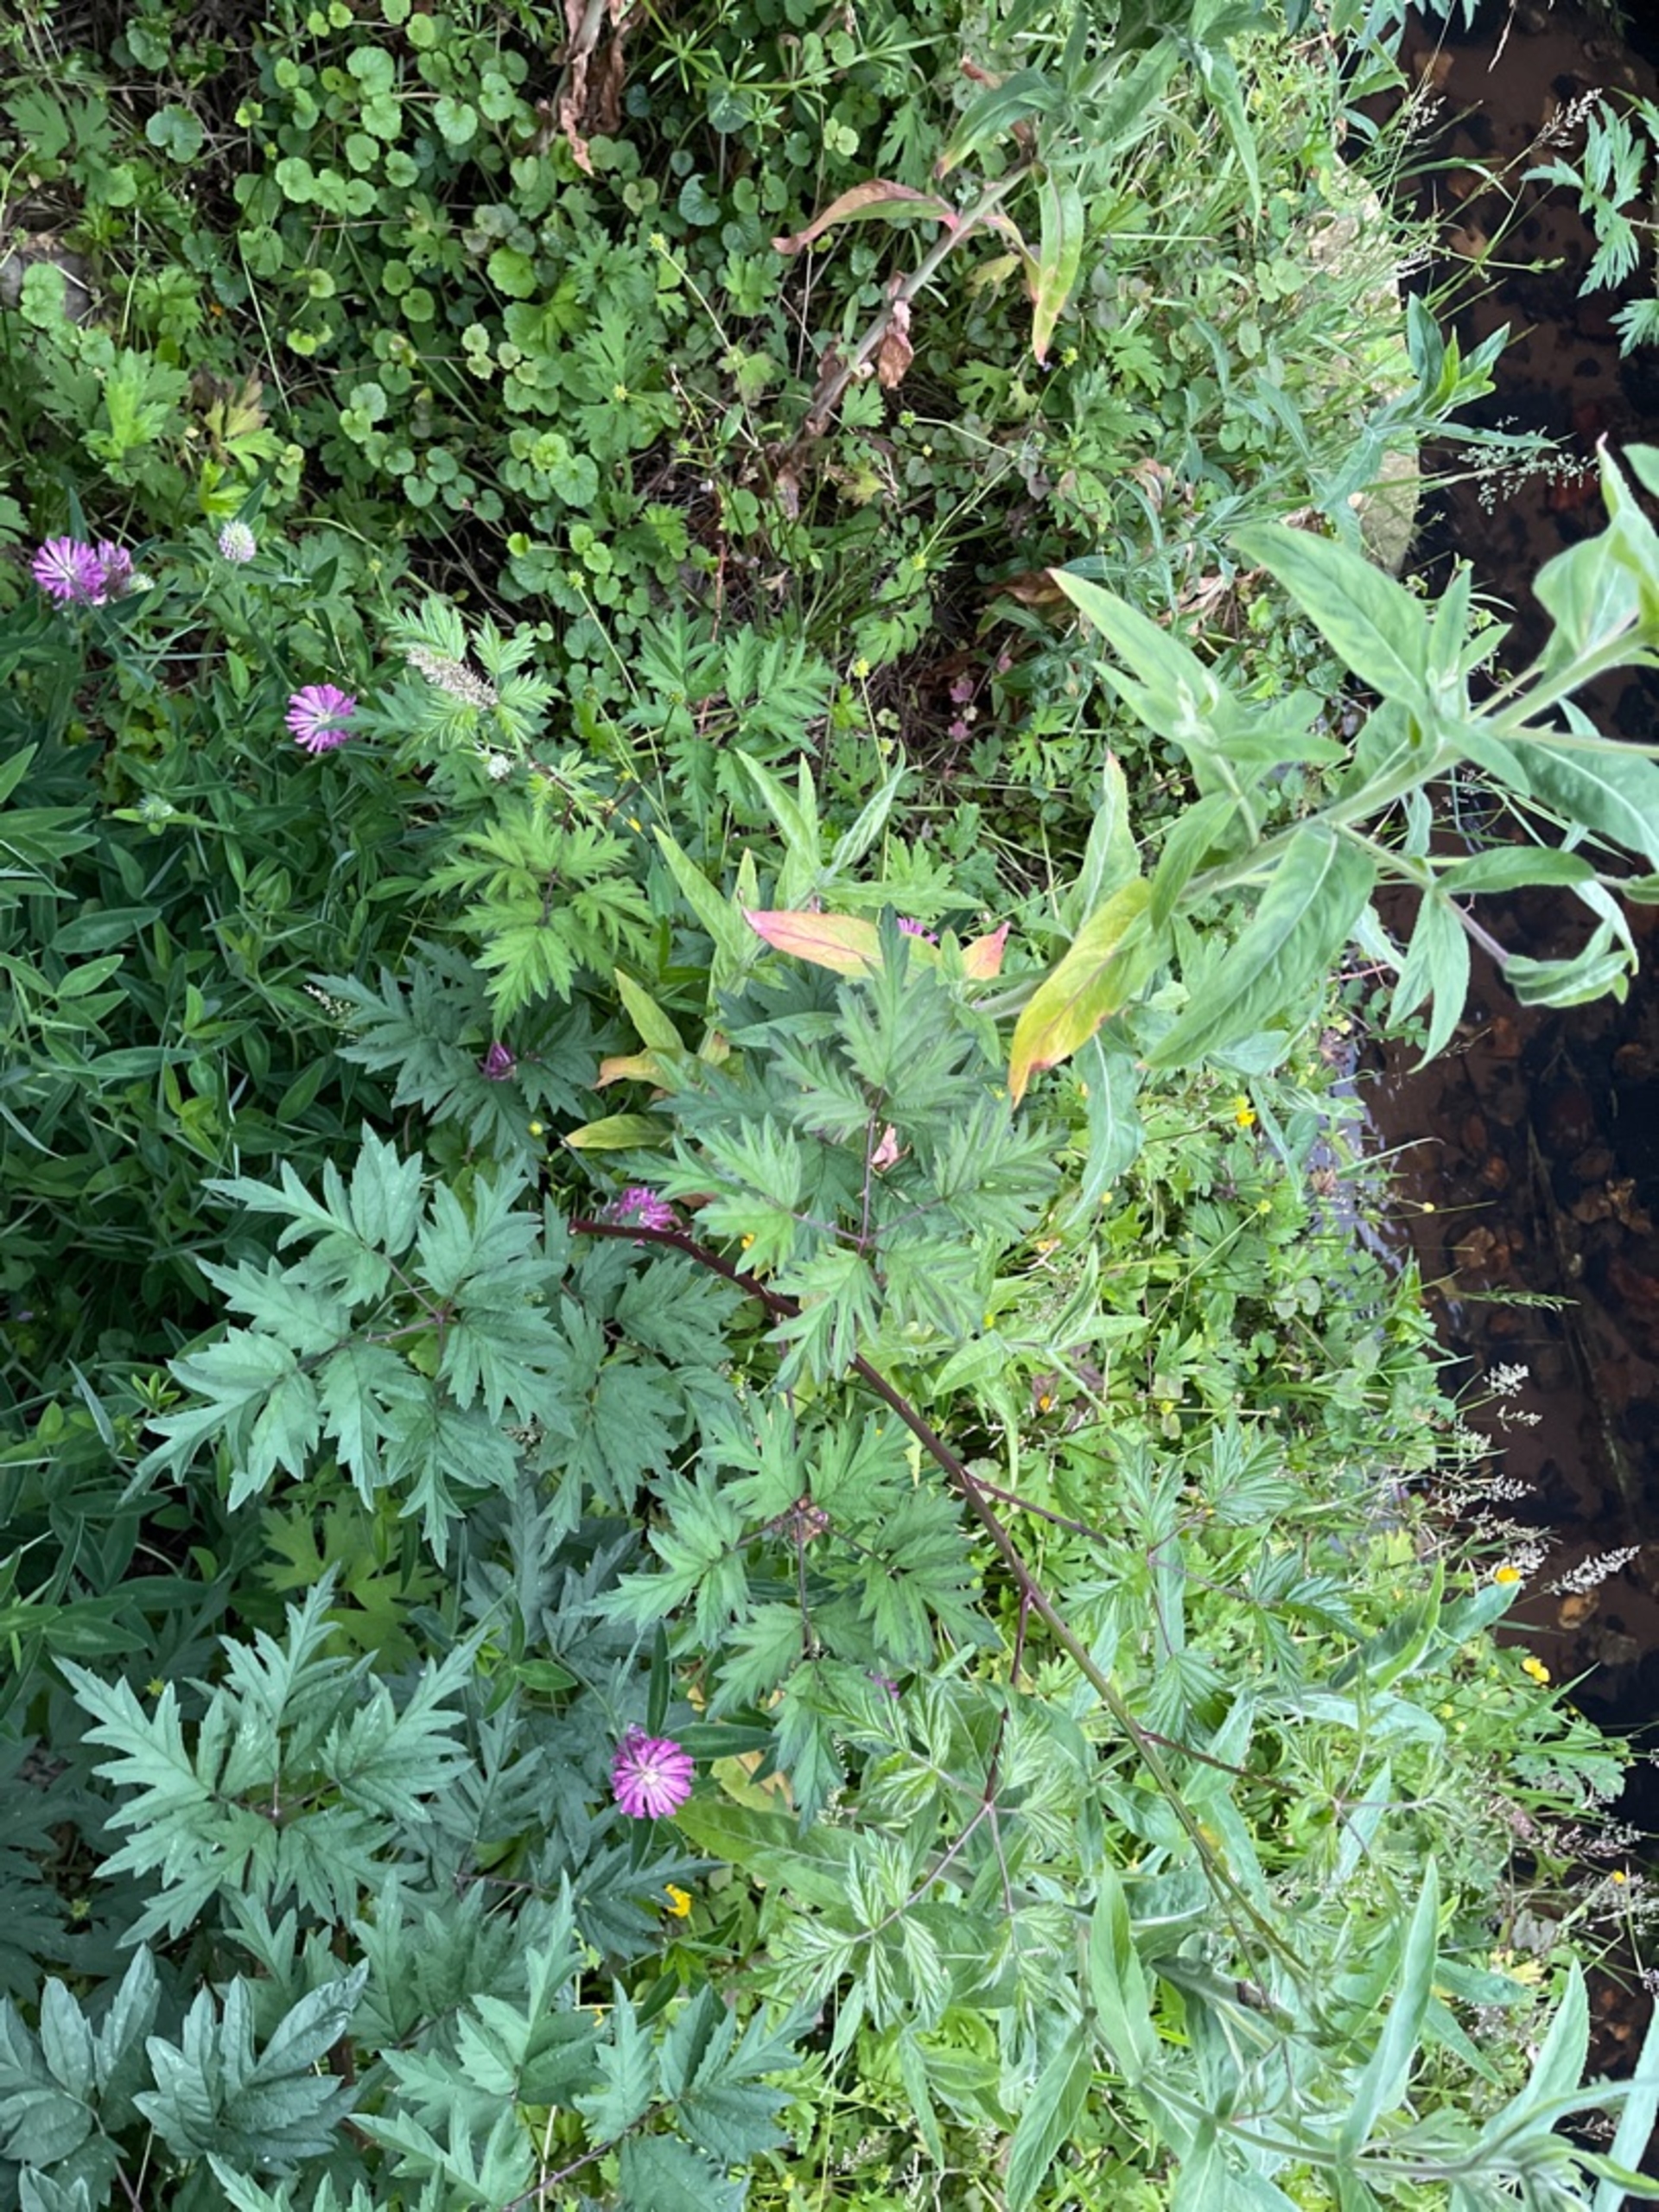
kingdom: Plantae
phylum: Tracheophyta
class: Magnoliopsida
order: Fabales
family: Fabaceae
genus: Trifolium
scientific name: Trifolium medium
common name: Bugtet kløver
